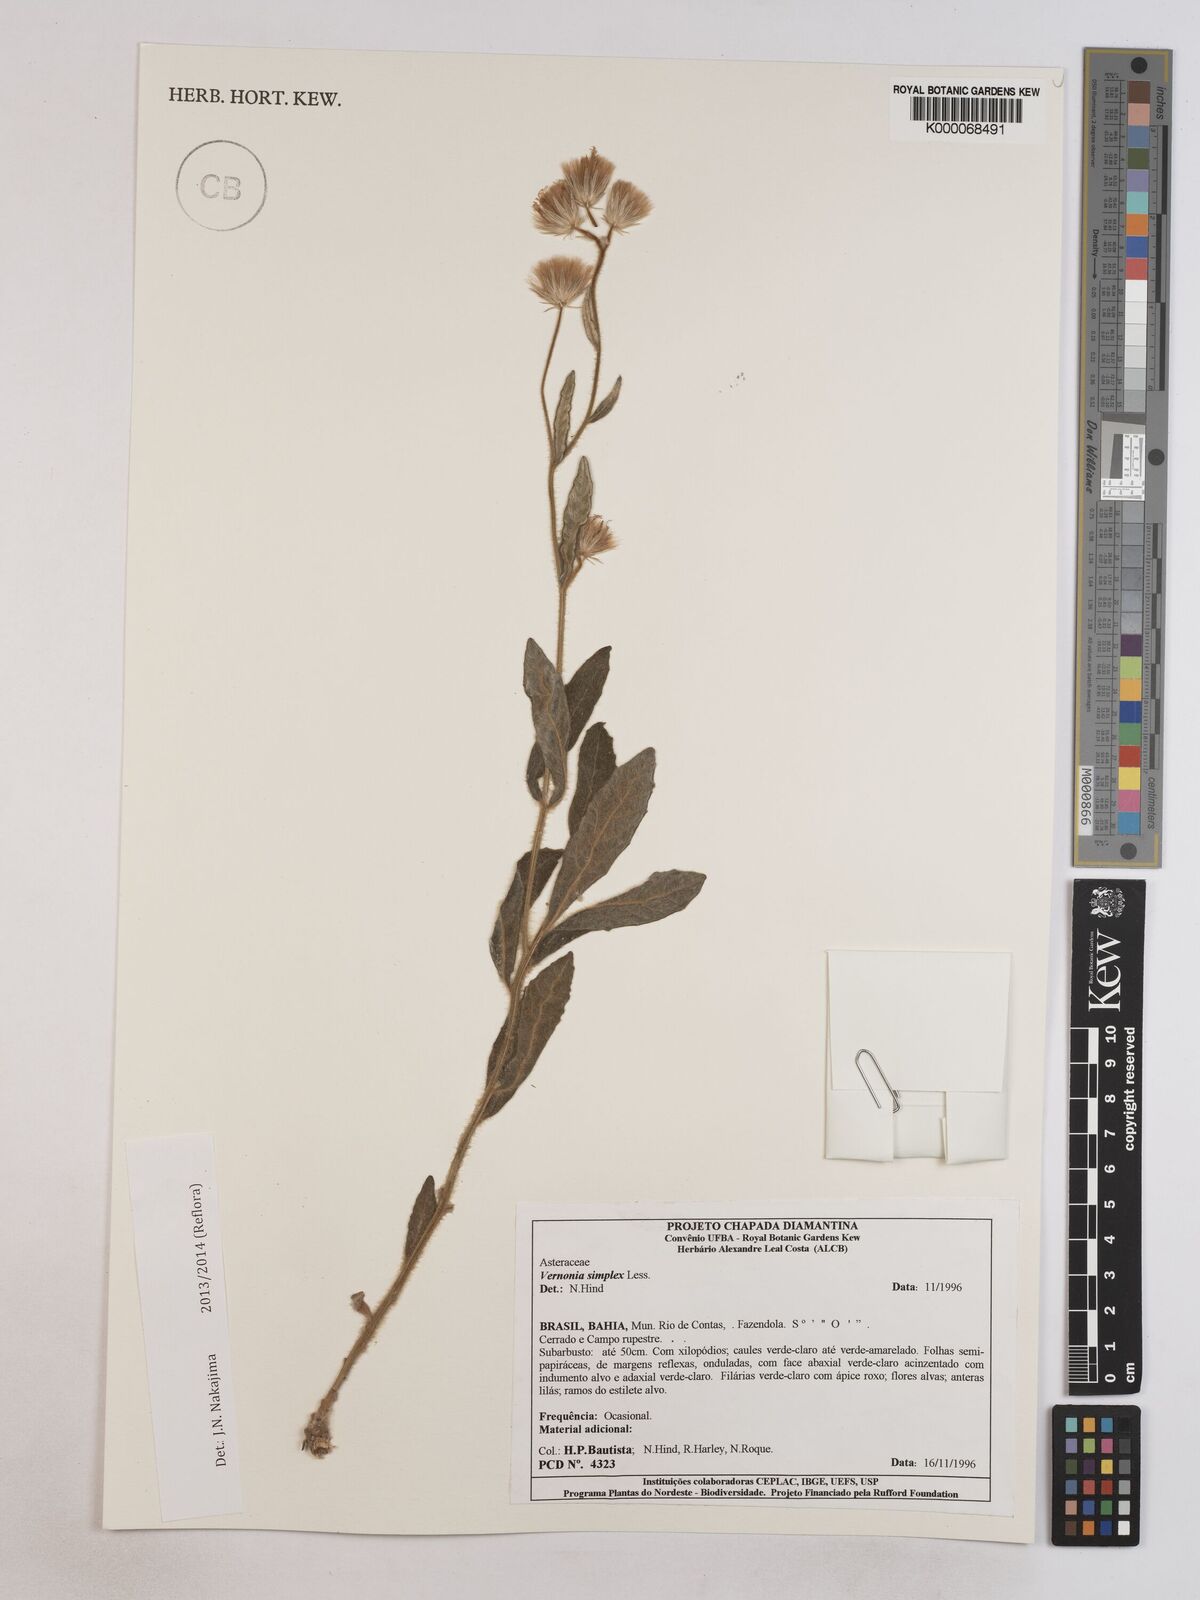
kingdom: Plantae
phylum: Tracheophyta
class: Magnoliopsida
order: Asterales
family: Asteraceae
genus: Chrysolaena
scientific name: Chrysolaena simplex
